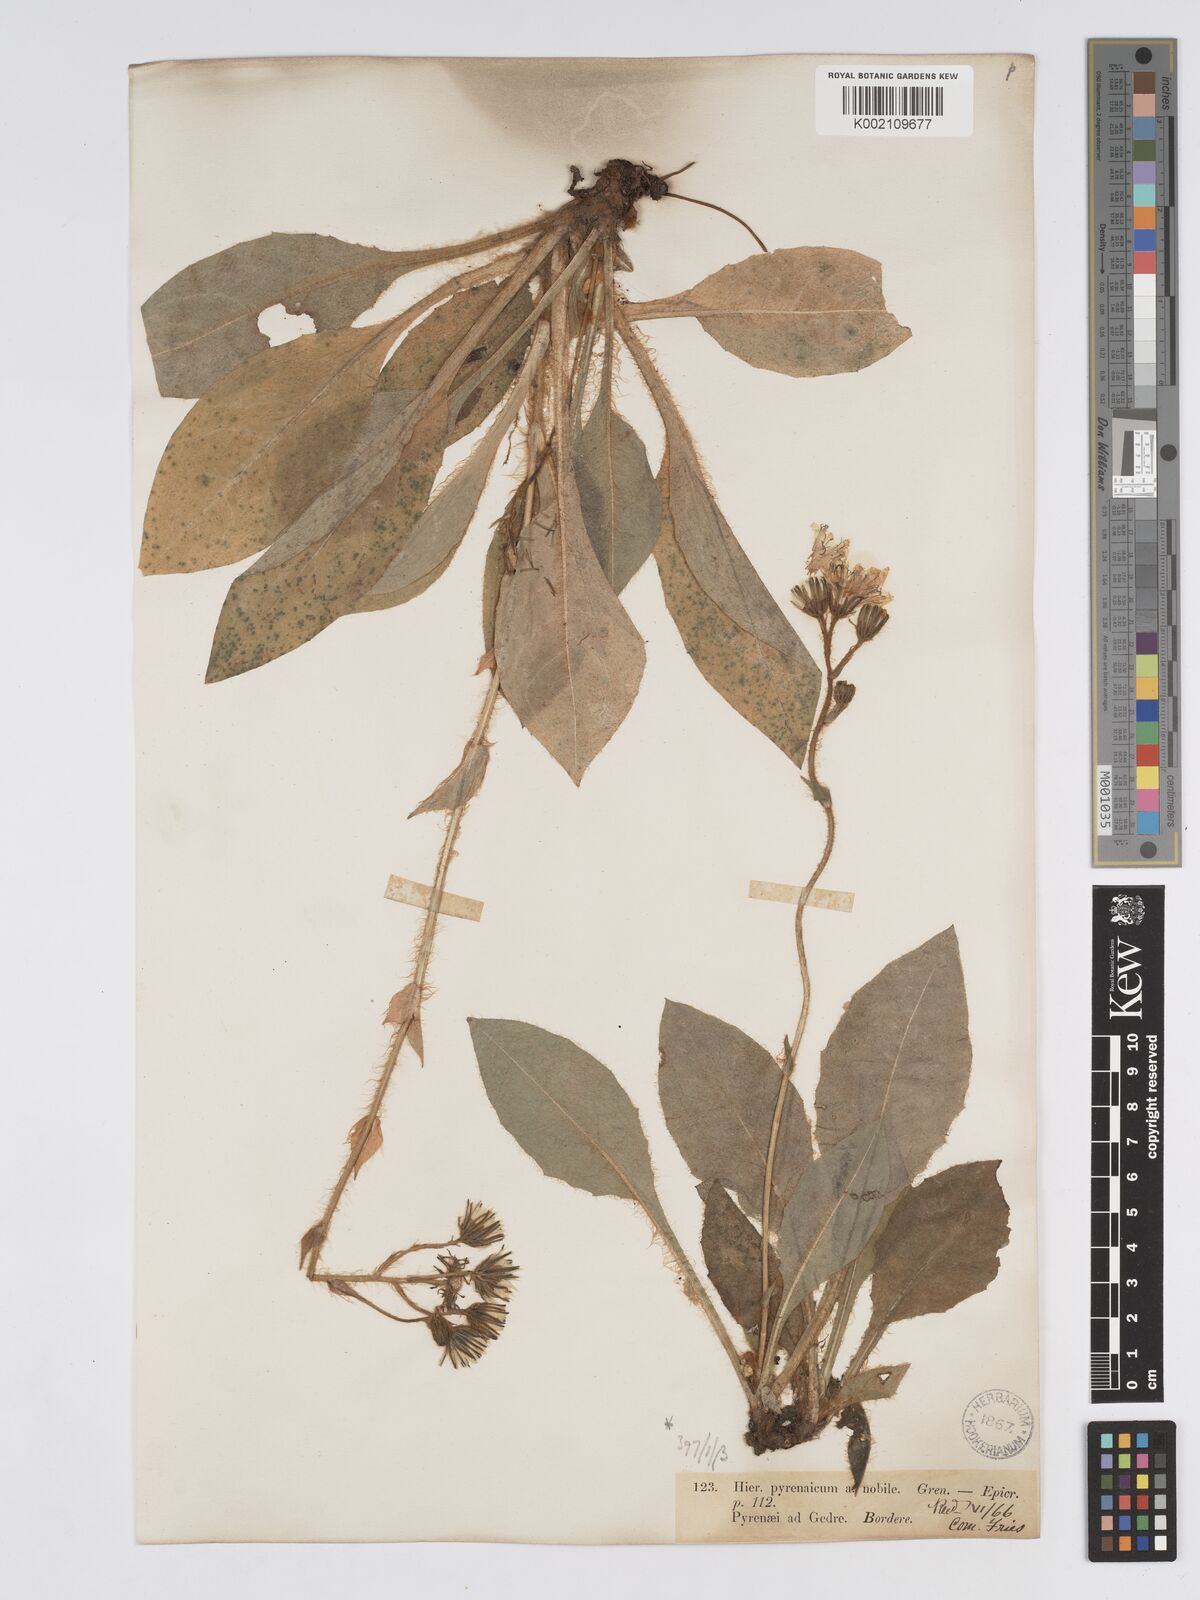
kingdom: Plantae
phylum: Tracheophyta
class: Magnoliopsida
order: Asterales
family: Asteraceae
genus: Hieracium
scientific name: Hieracium nobile
